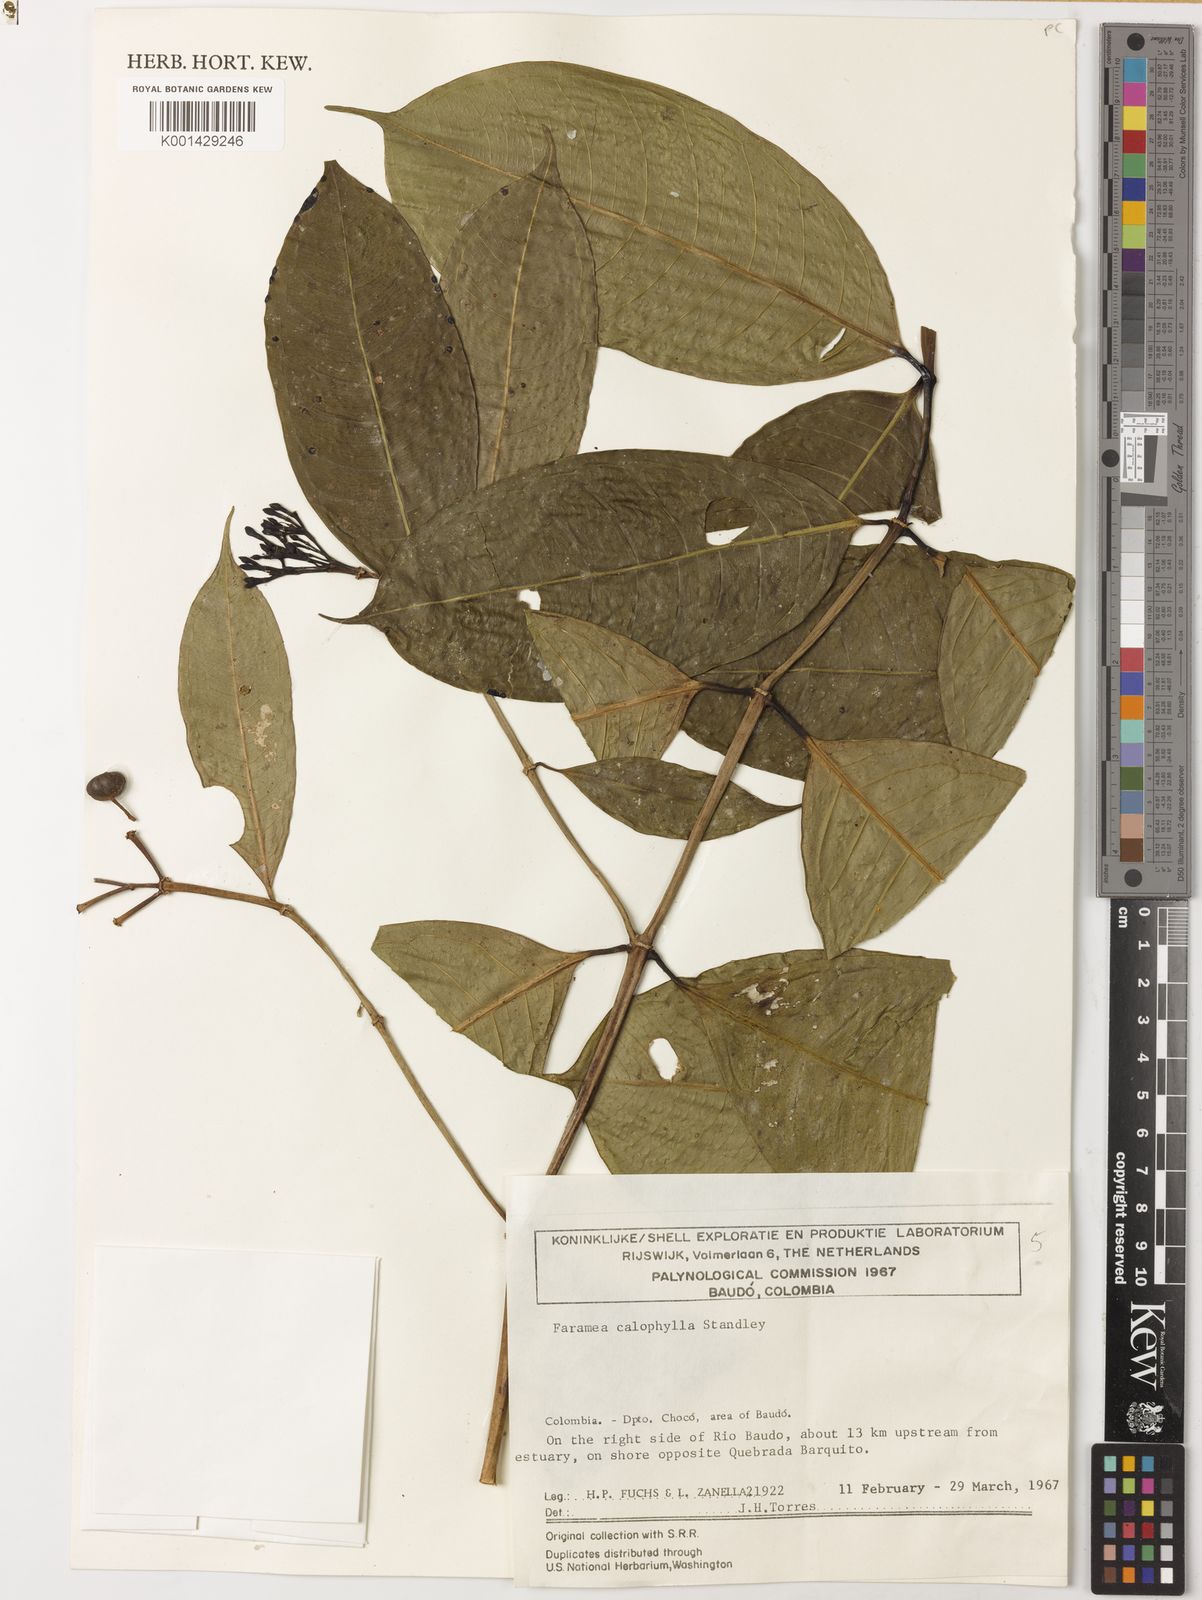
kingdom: Plantae
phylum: Tracheophyta
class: Magnoliopsida
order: Gentianales
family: Rubiaceae
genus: Faramea
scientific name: Faramea calophylla
